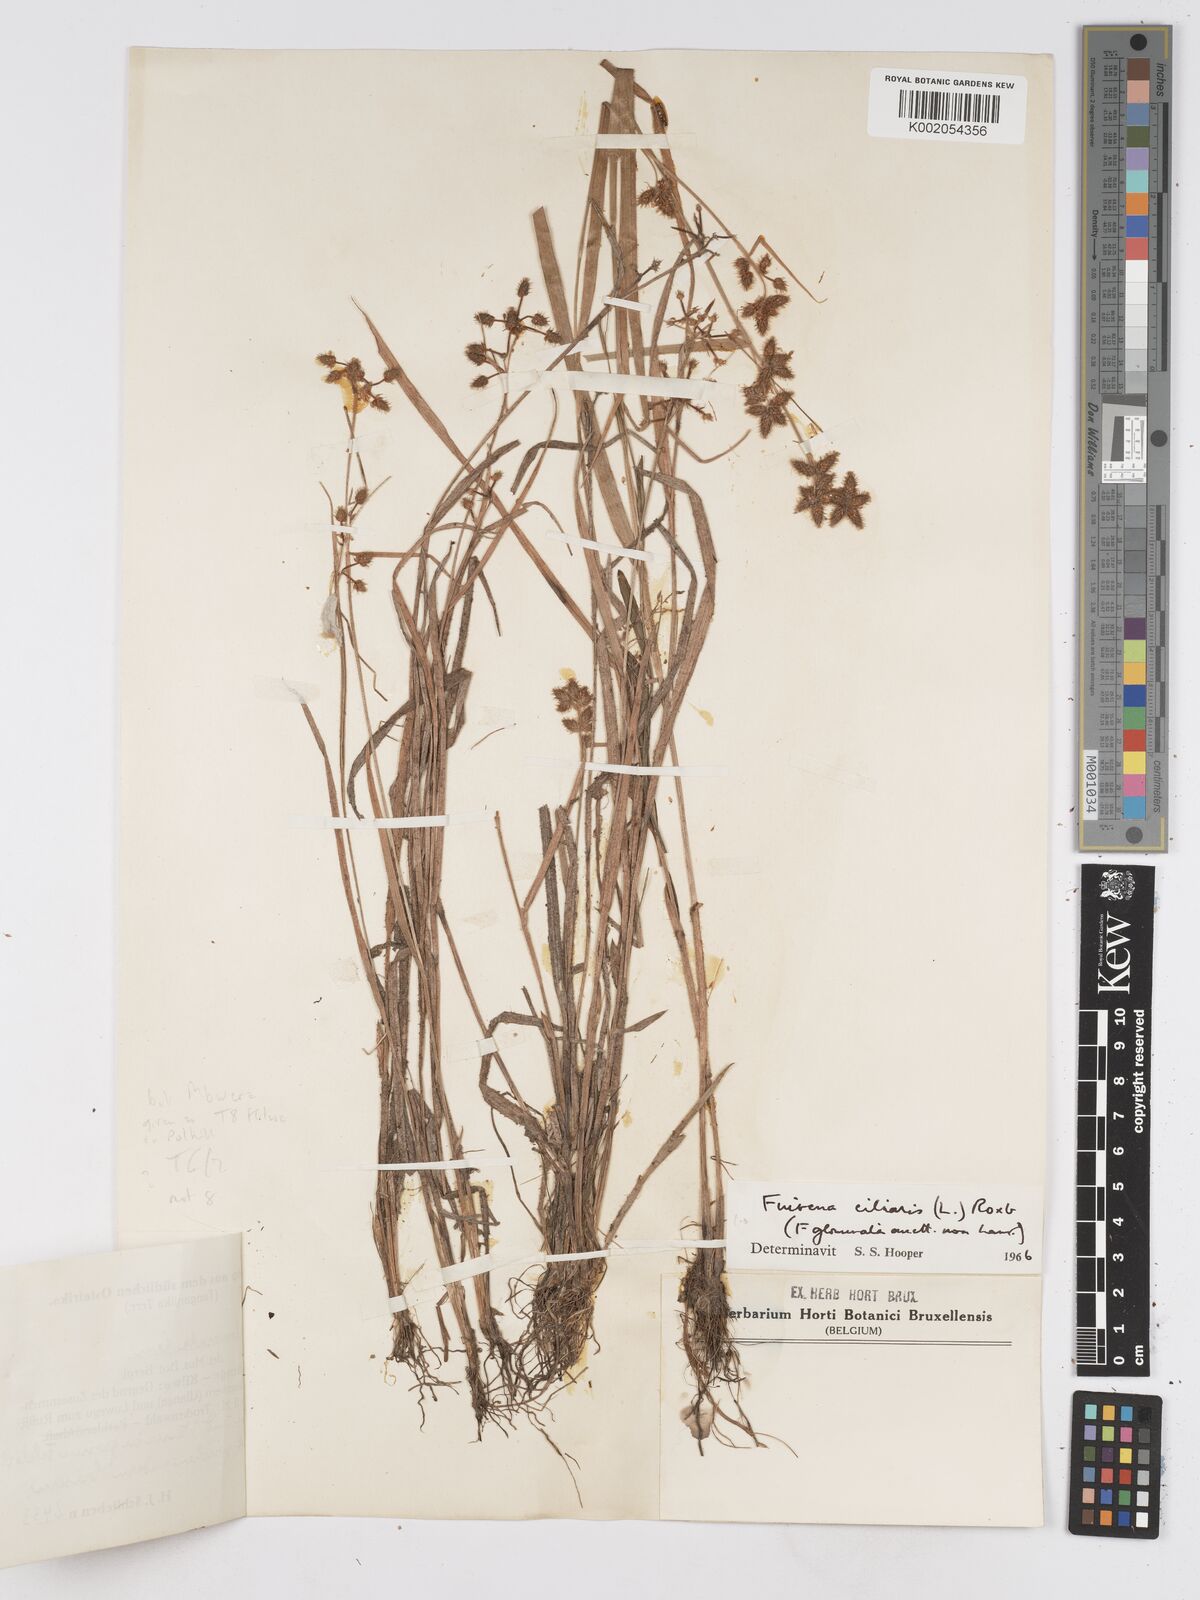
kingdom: Plantae
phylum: Tracheophyta
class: Liliopsida
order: Poales
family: Cyperaceae
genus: Fuirena
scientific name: Fuirena ciliaris
